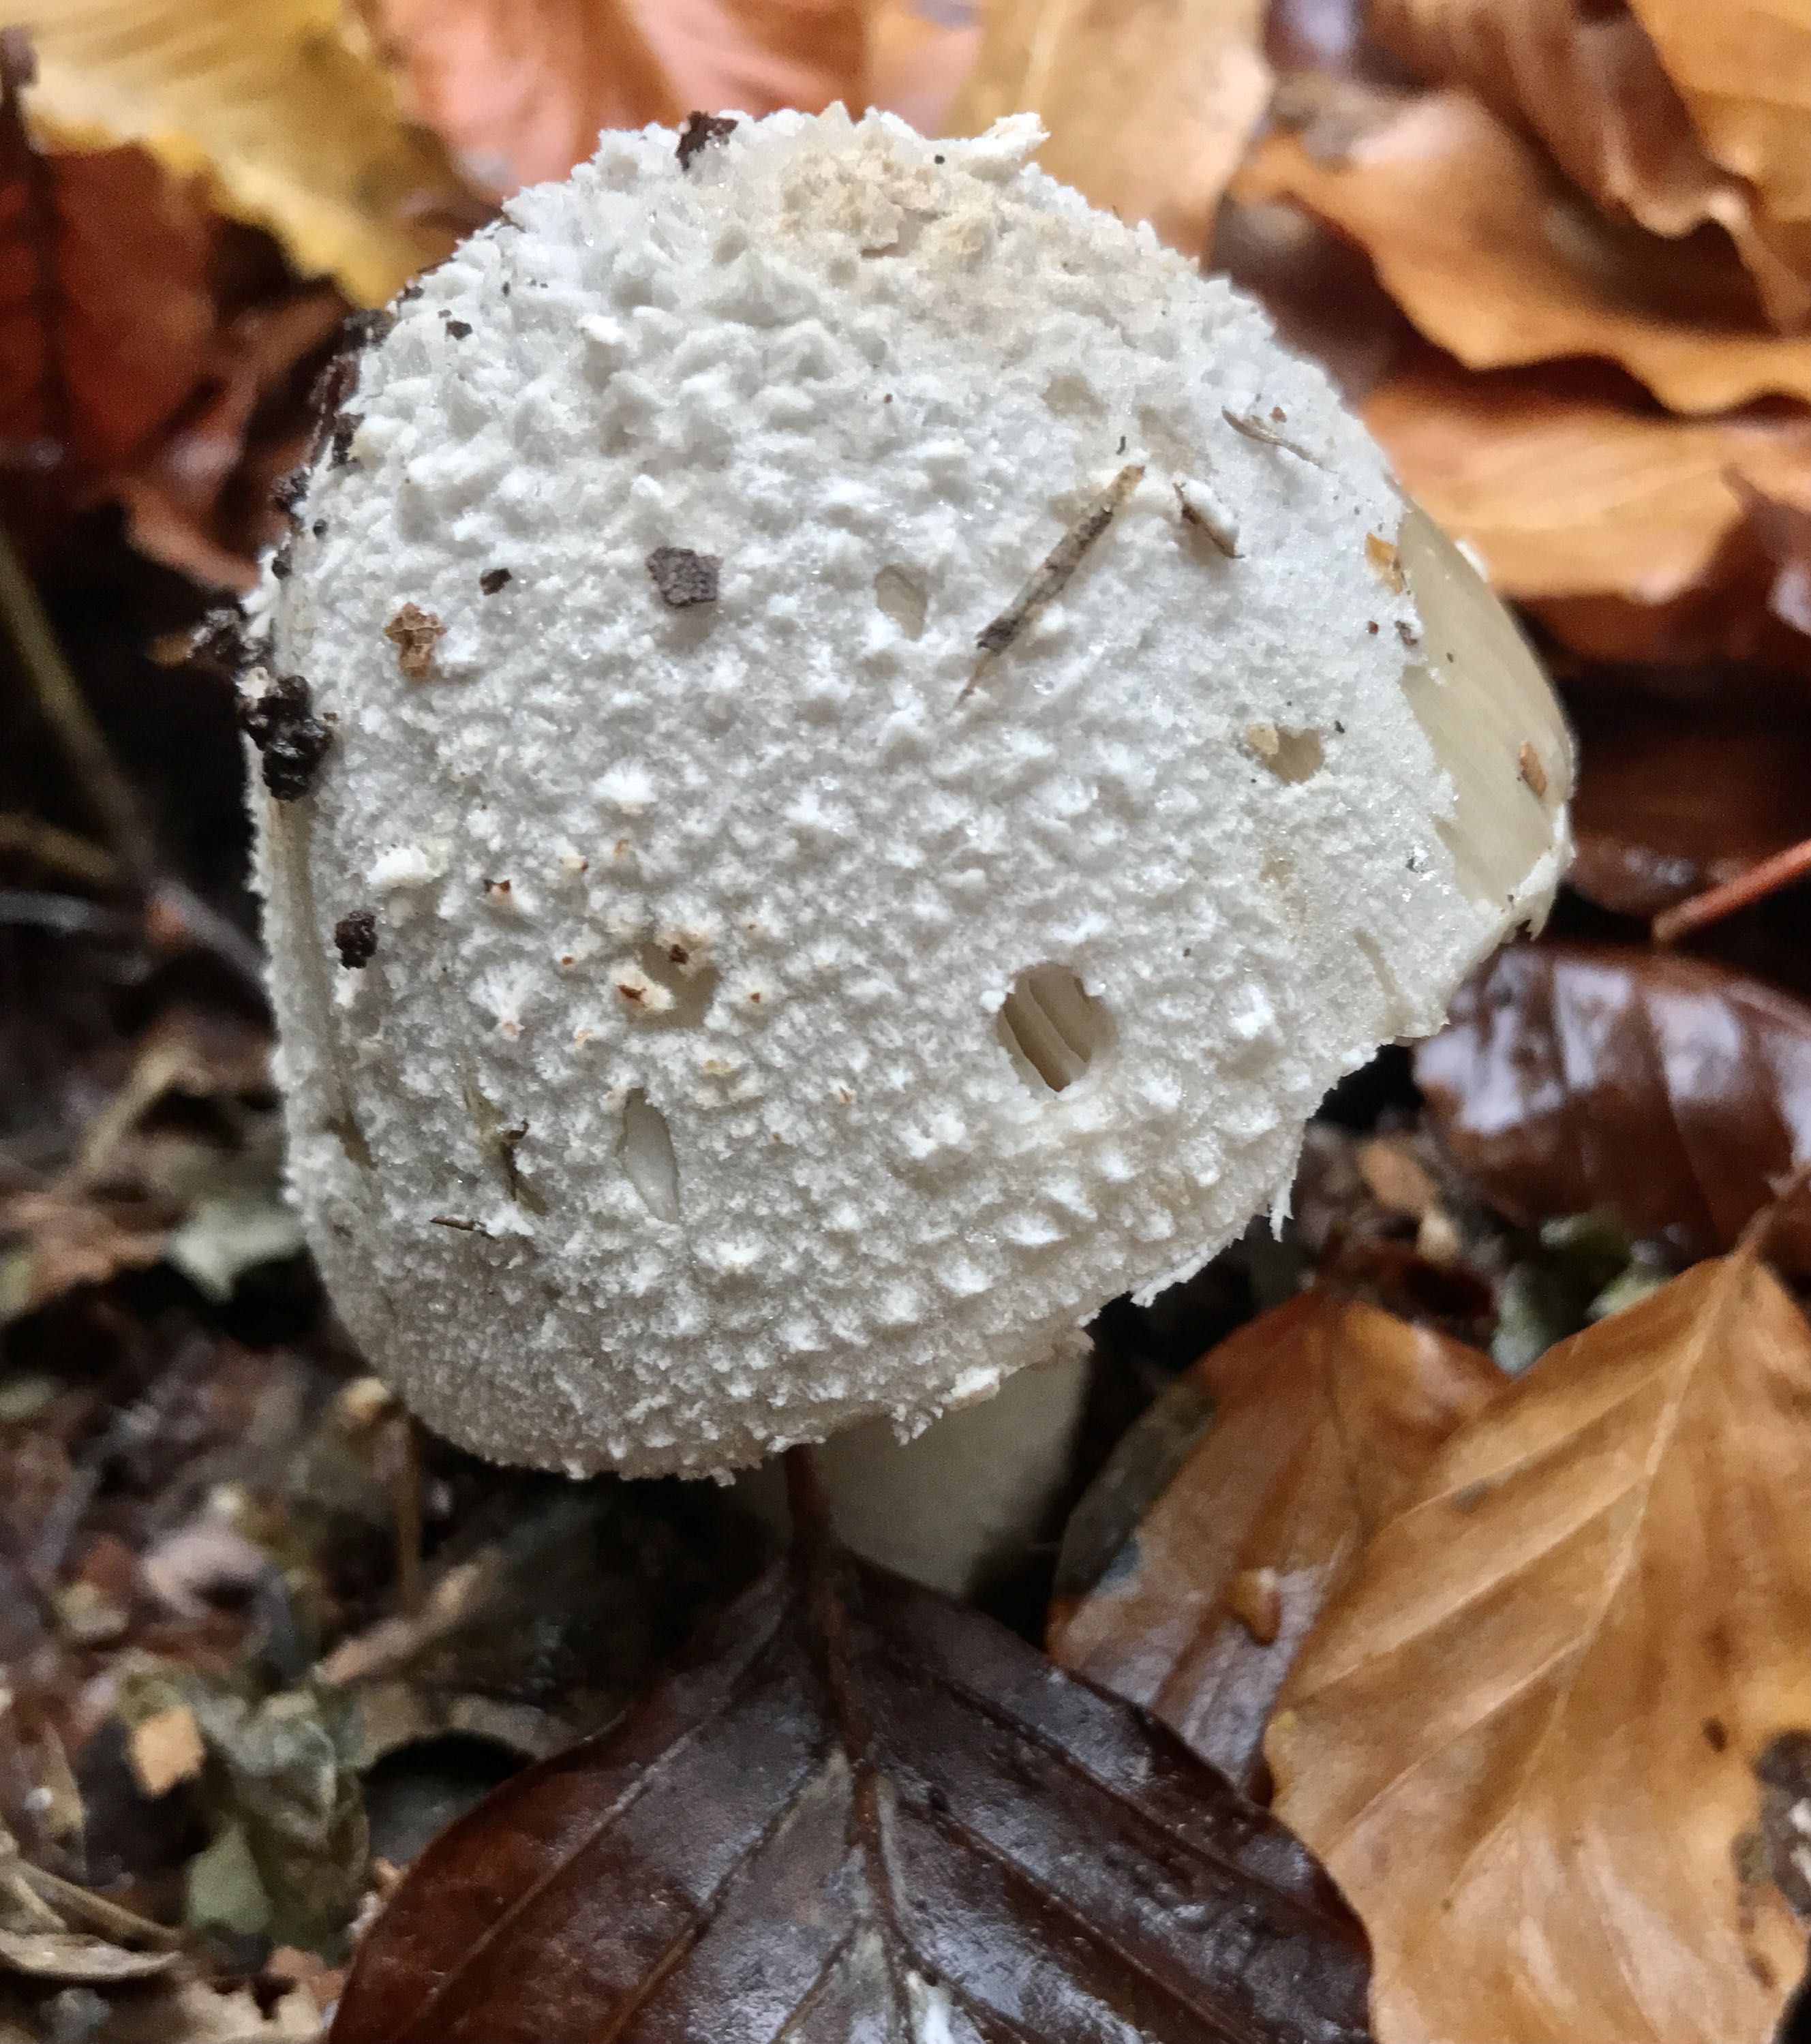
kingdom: Fungi
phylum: Basidiomycota
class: Agaricomycetes
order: Agaricales
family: Amanitaceae
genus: Amanita
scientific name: Amanita
